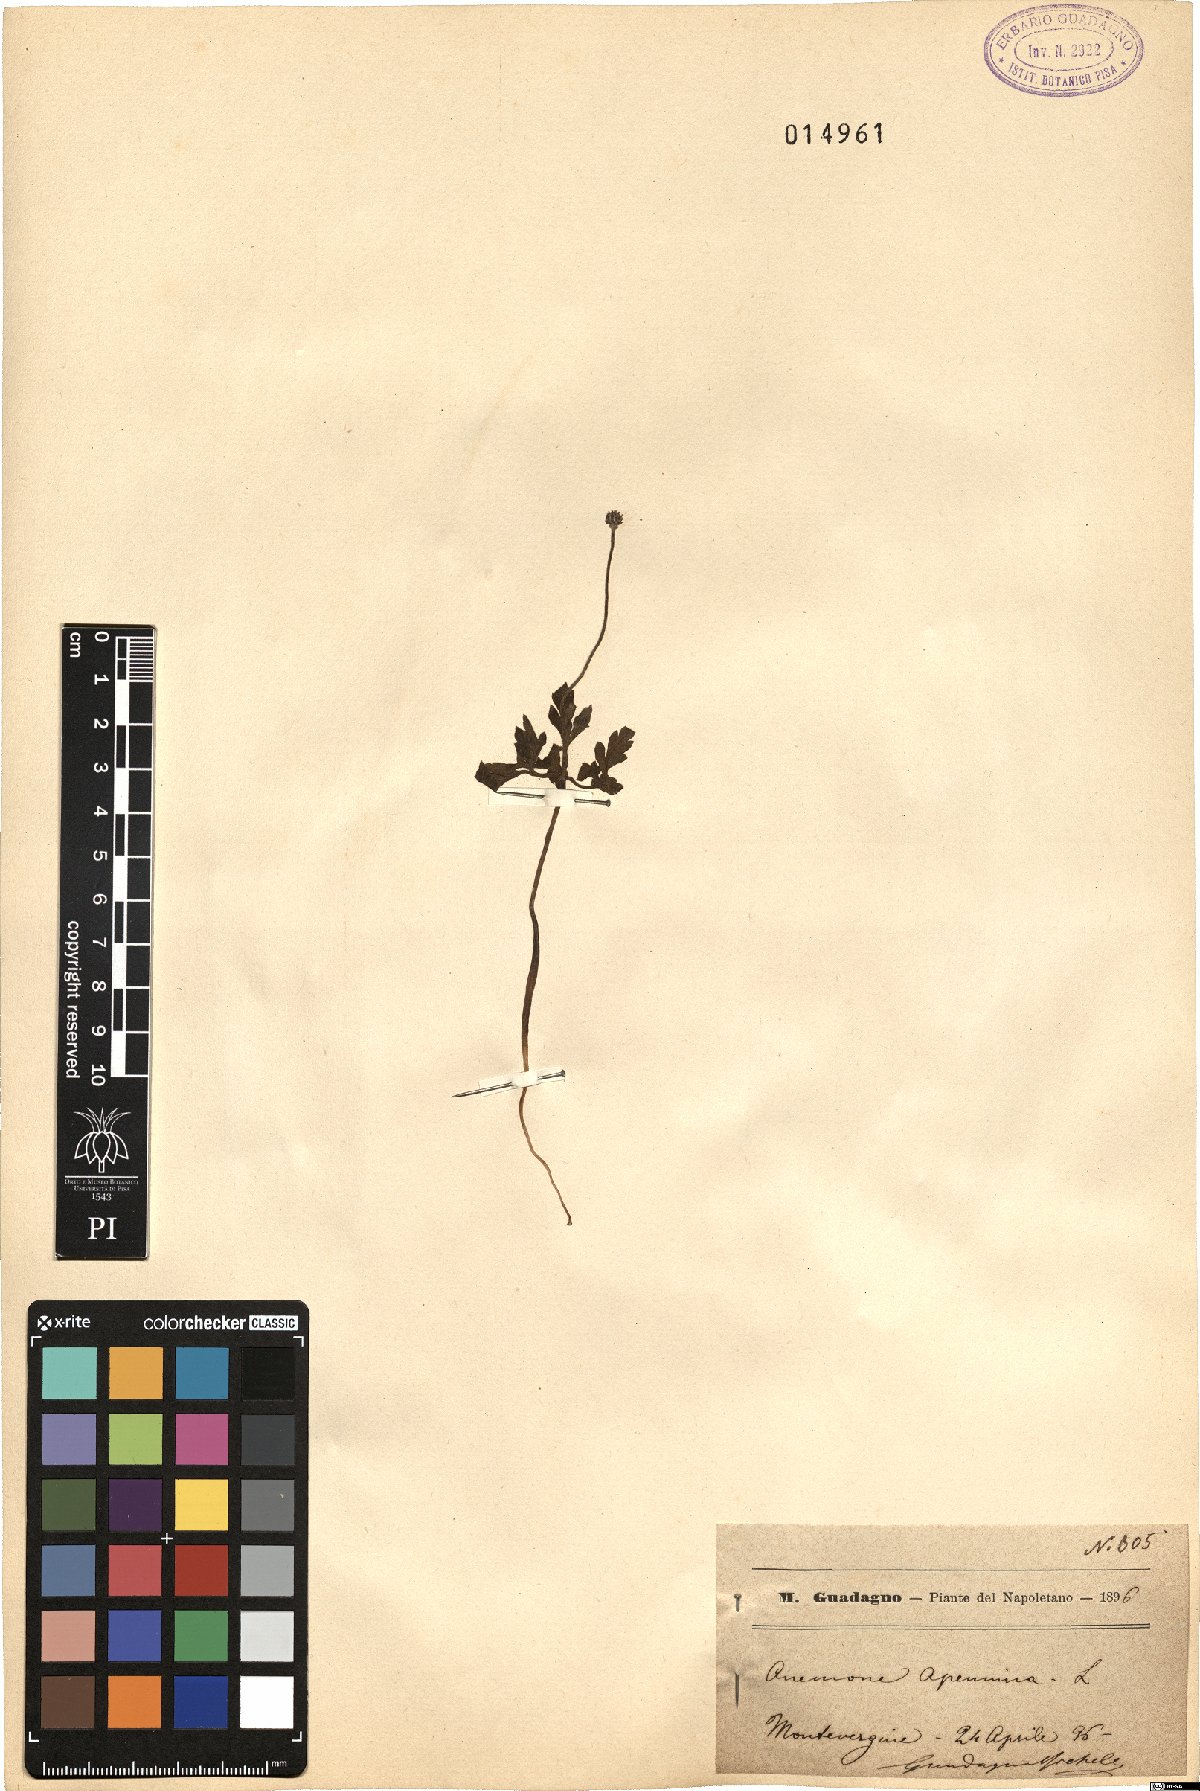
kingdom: Plantae
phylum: Tracheophyta
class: Magnoliopsida
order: Ranunculales
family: Ranunculaceae
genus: Anemone
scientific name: Anemone apennina
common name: Blue anemone
